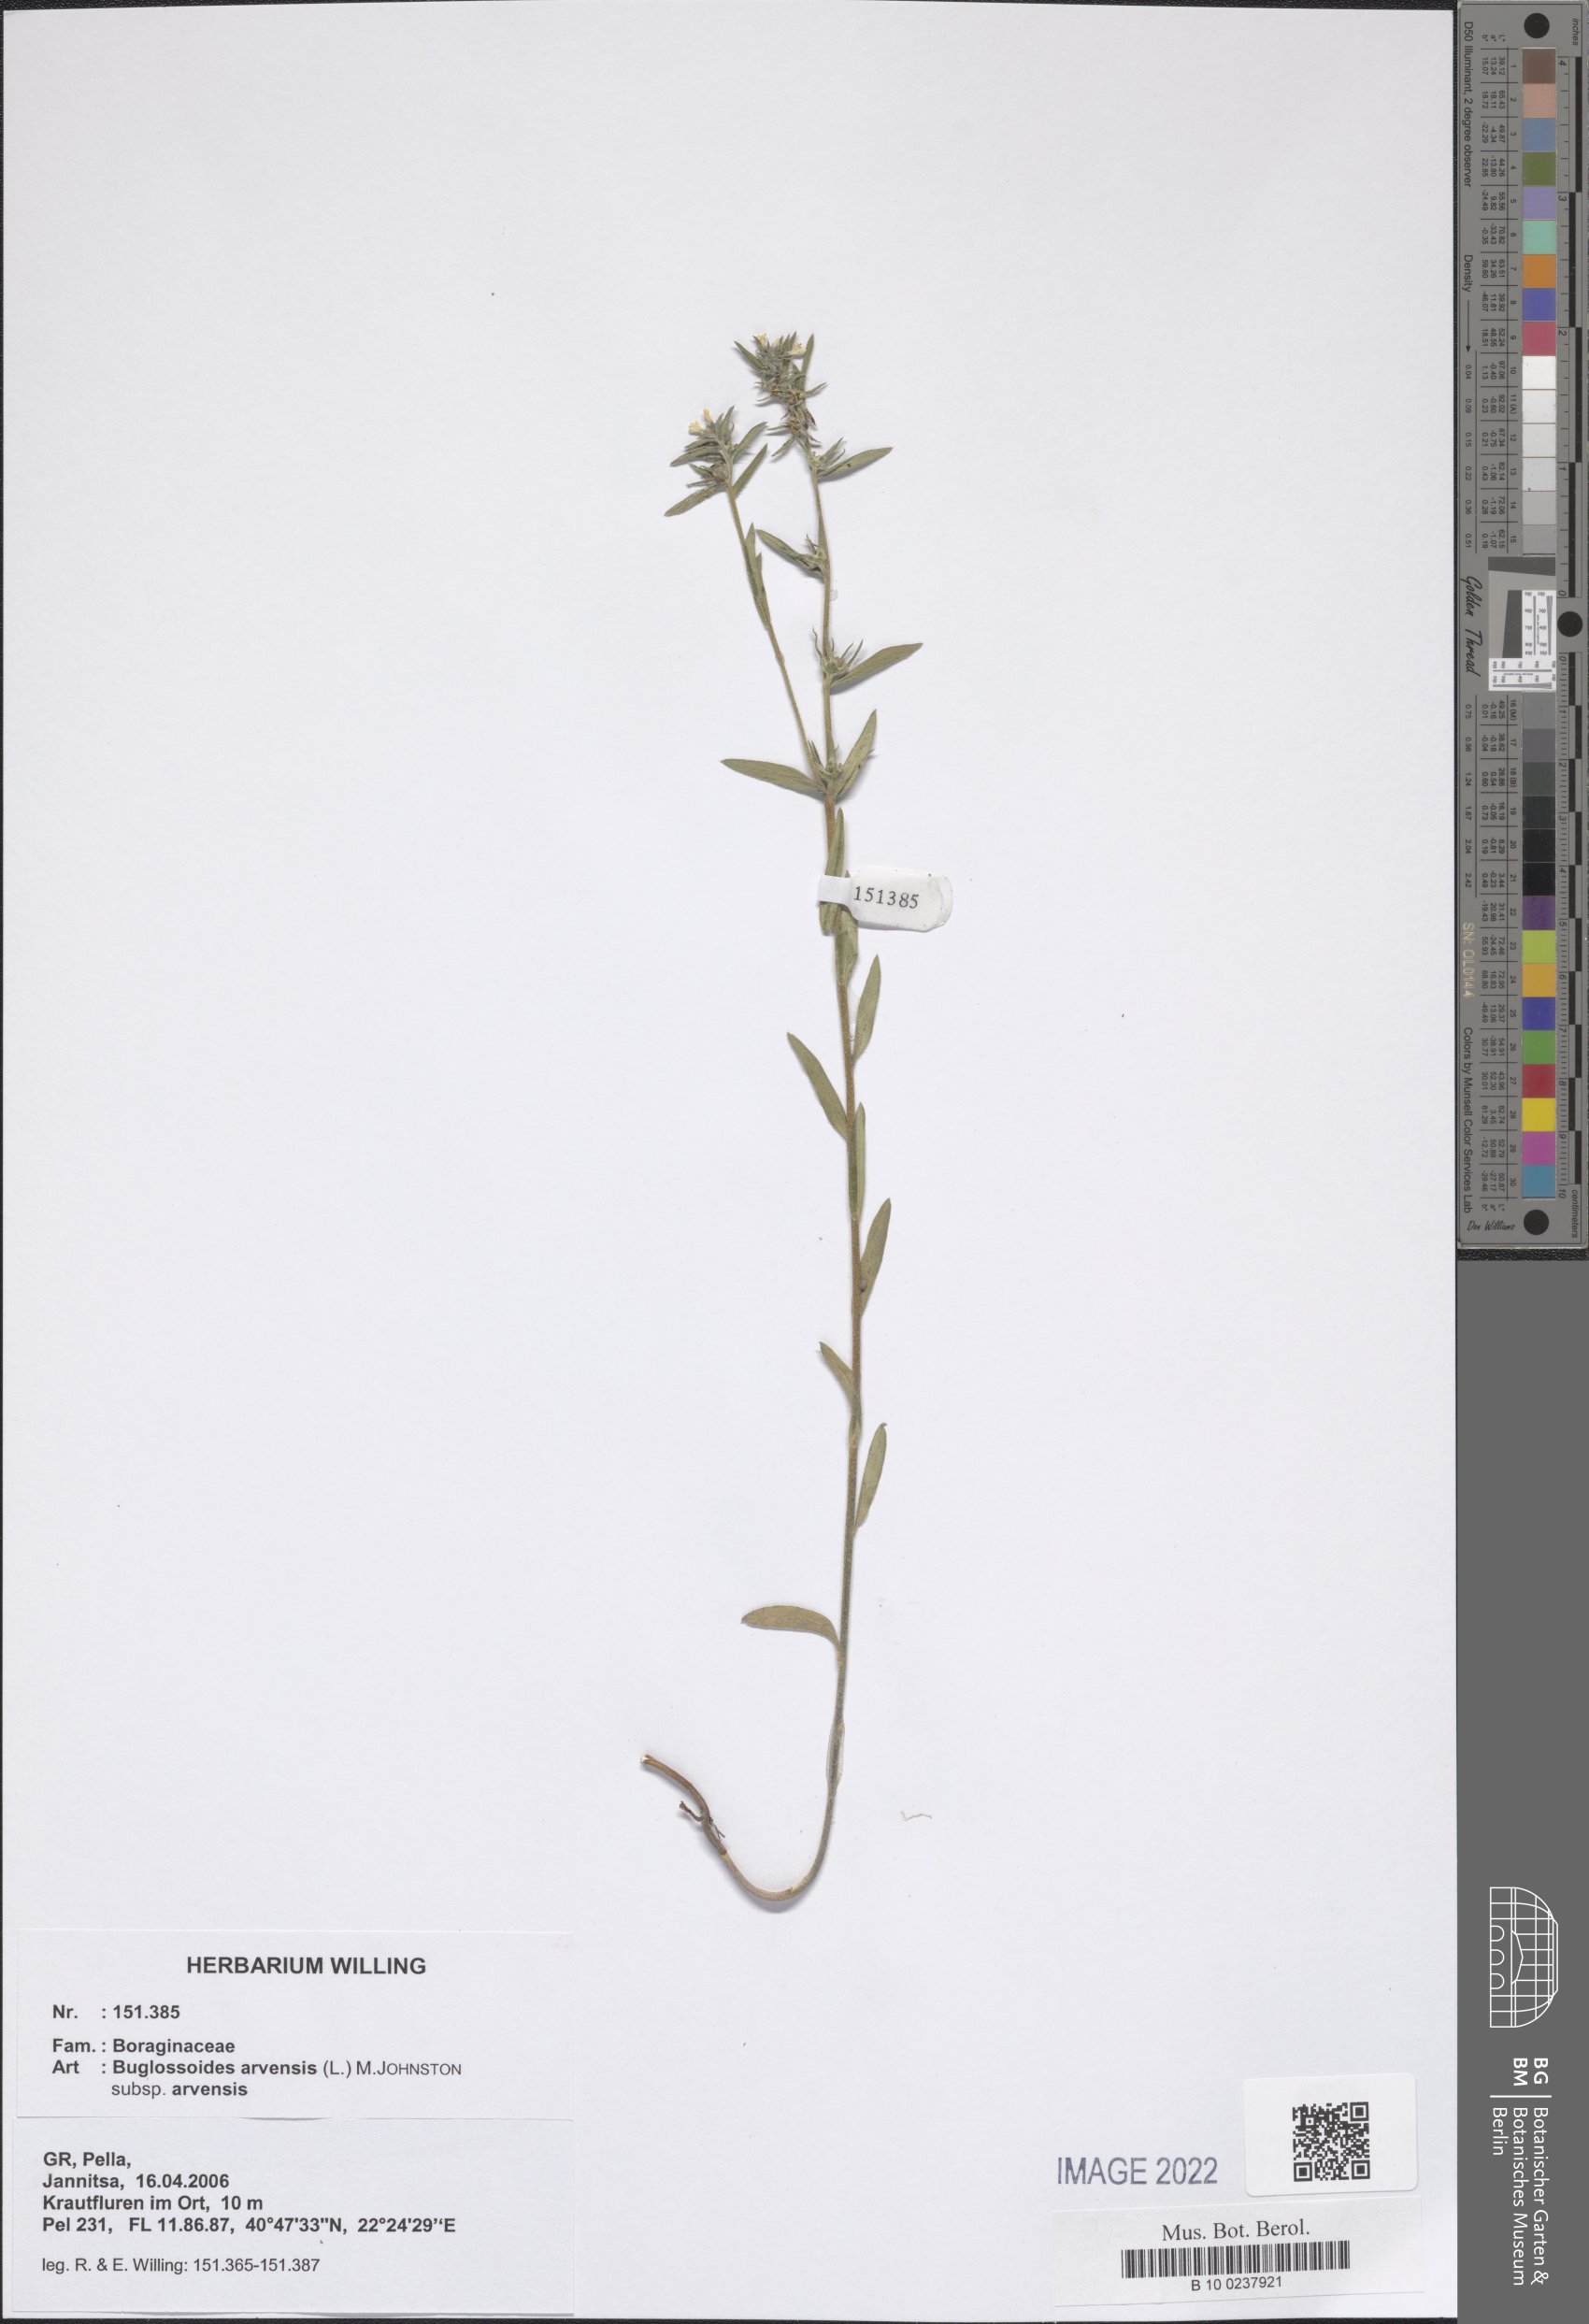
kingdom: Plantae
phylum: Tracheophyta
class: Magnoliopsida
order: Boraginales
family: Boraginaceae
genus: Buglossoides
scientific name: Buglossoides arvensis
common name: Corn gromwell
